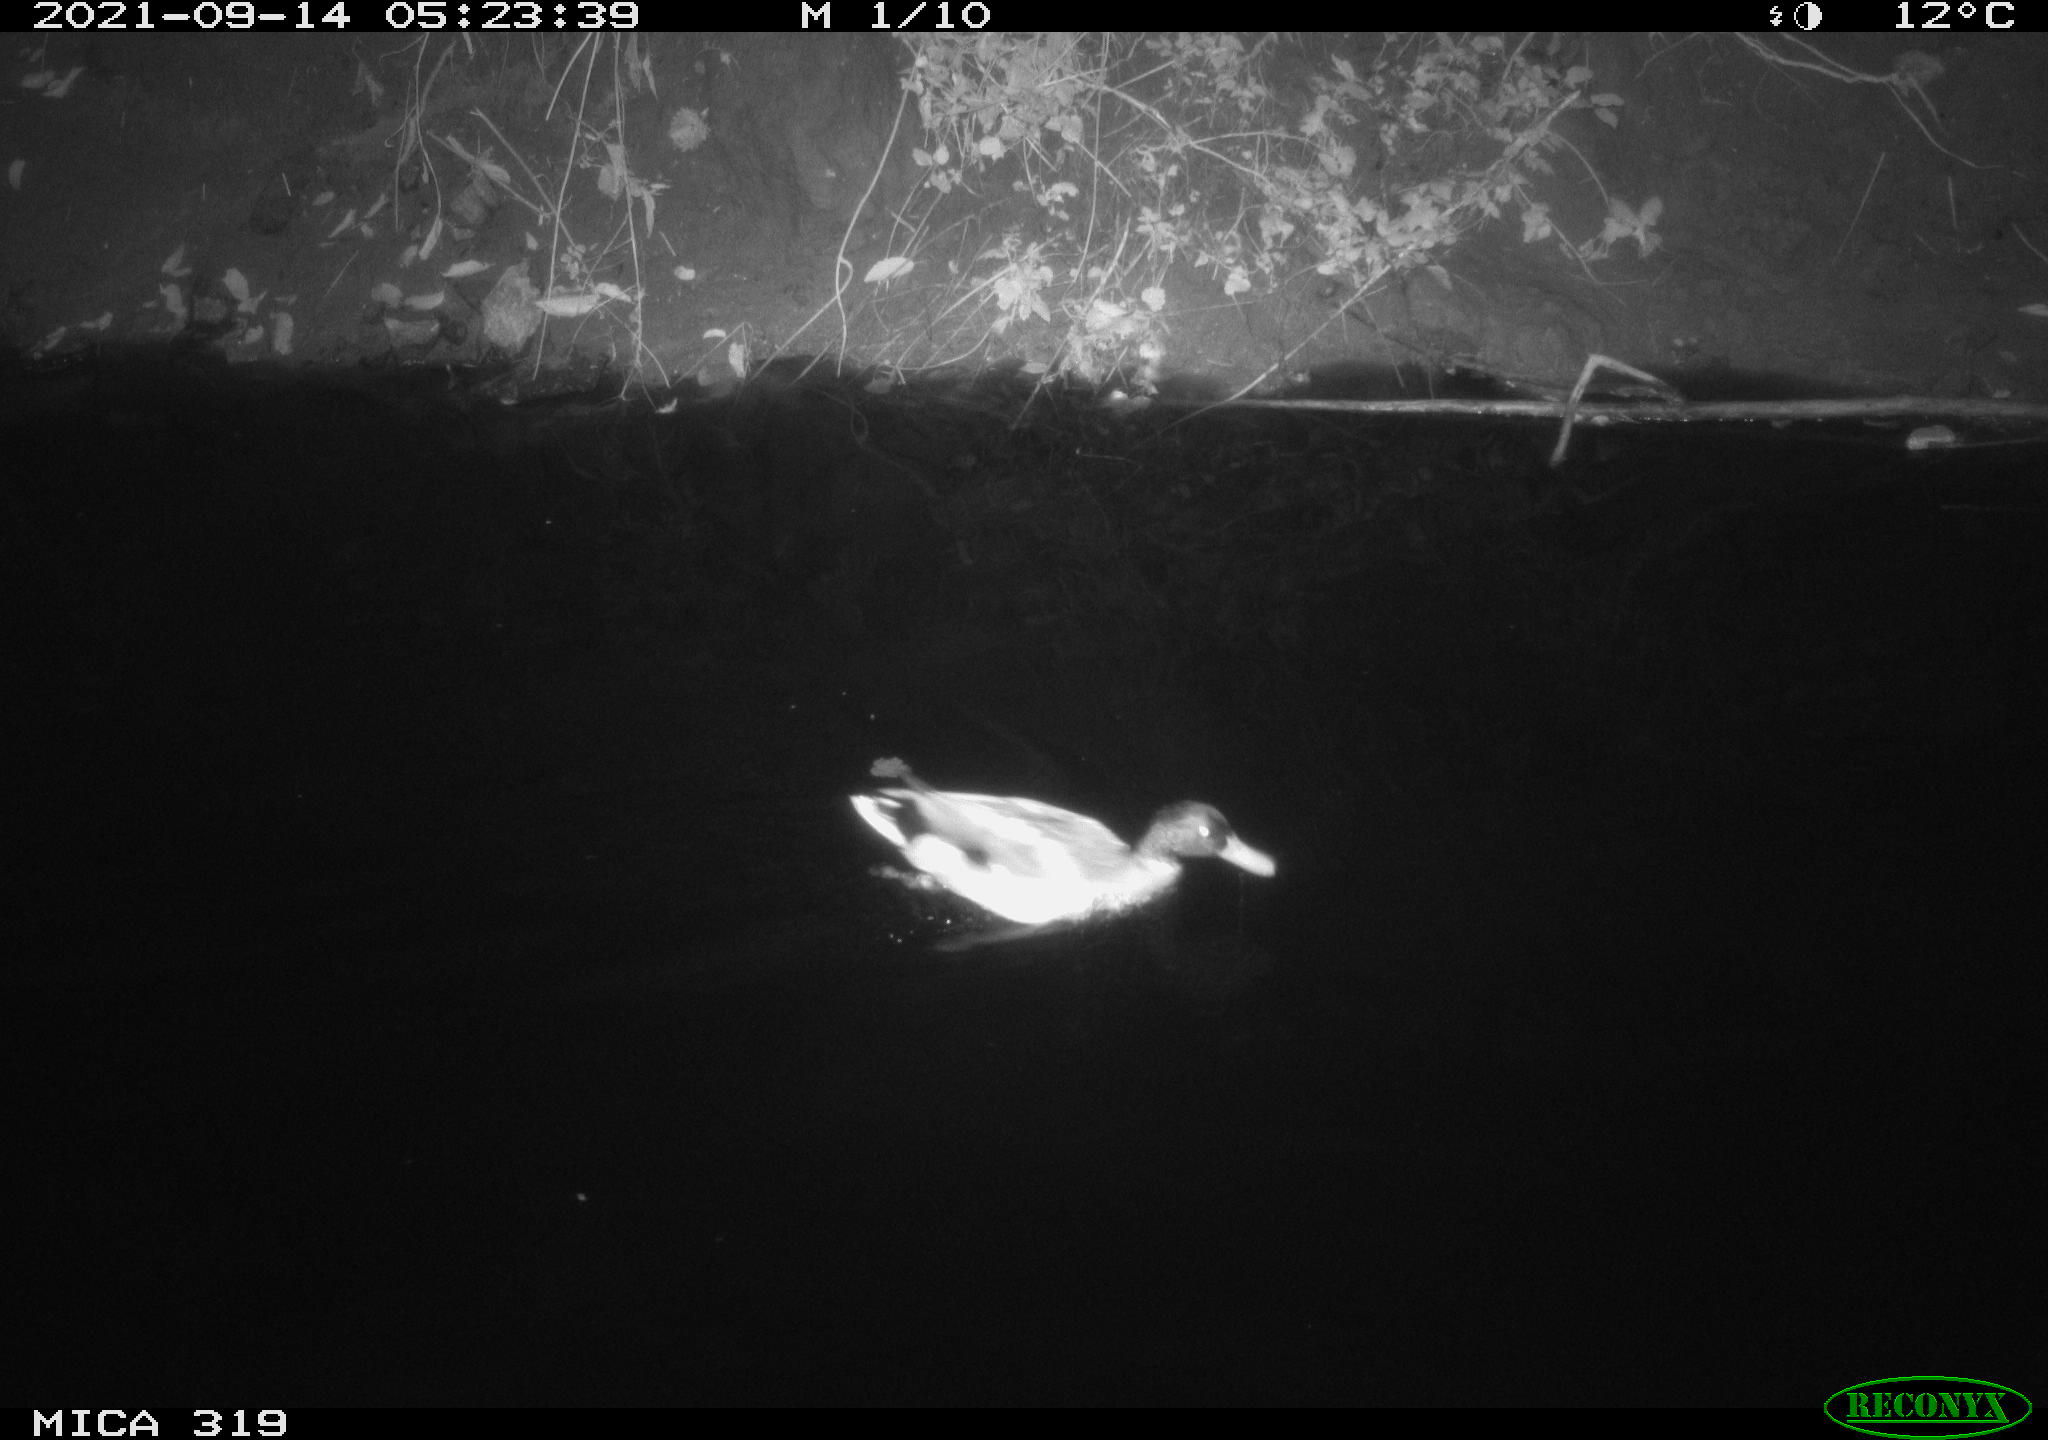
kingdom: Animalia
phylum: Chordata
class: Aves
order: Anseriformes
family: Anatidae
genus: Anas
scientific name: Anas platyrhynchos
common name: Mallard
